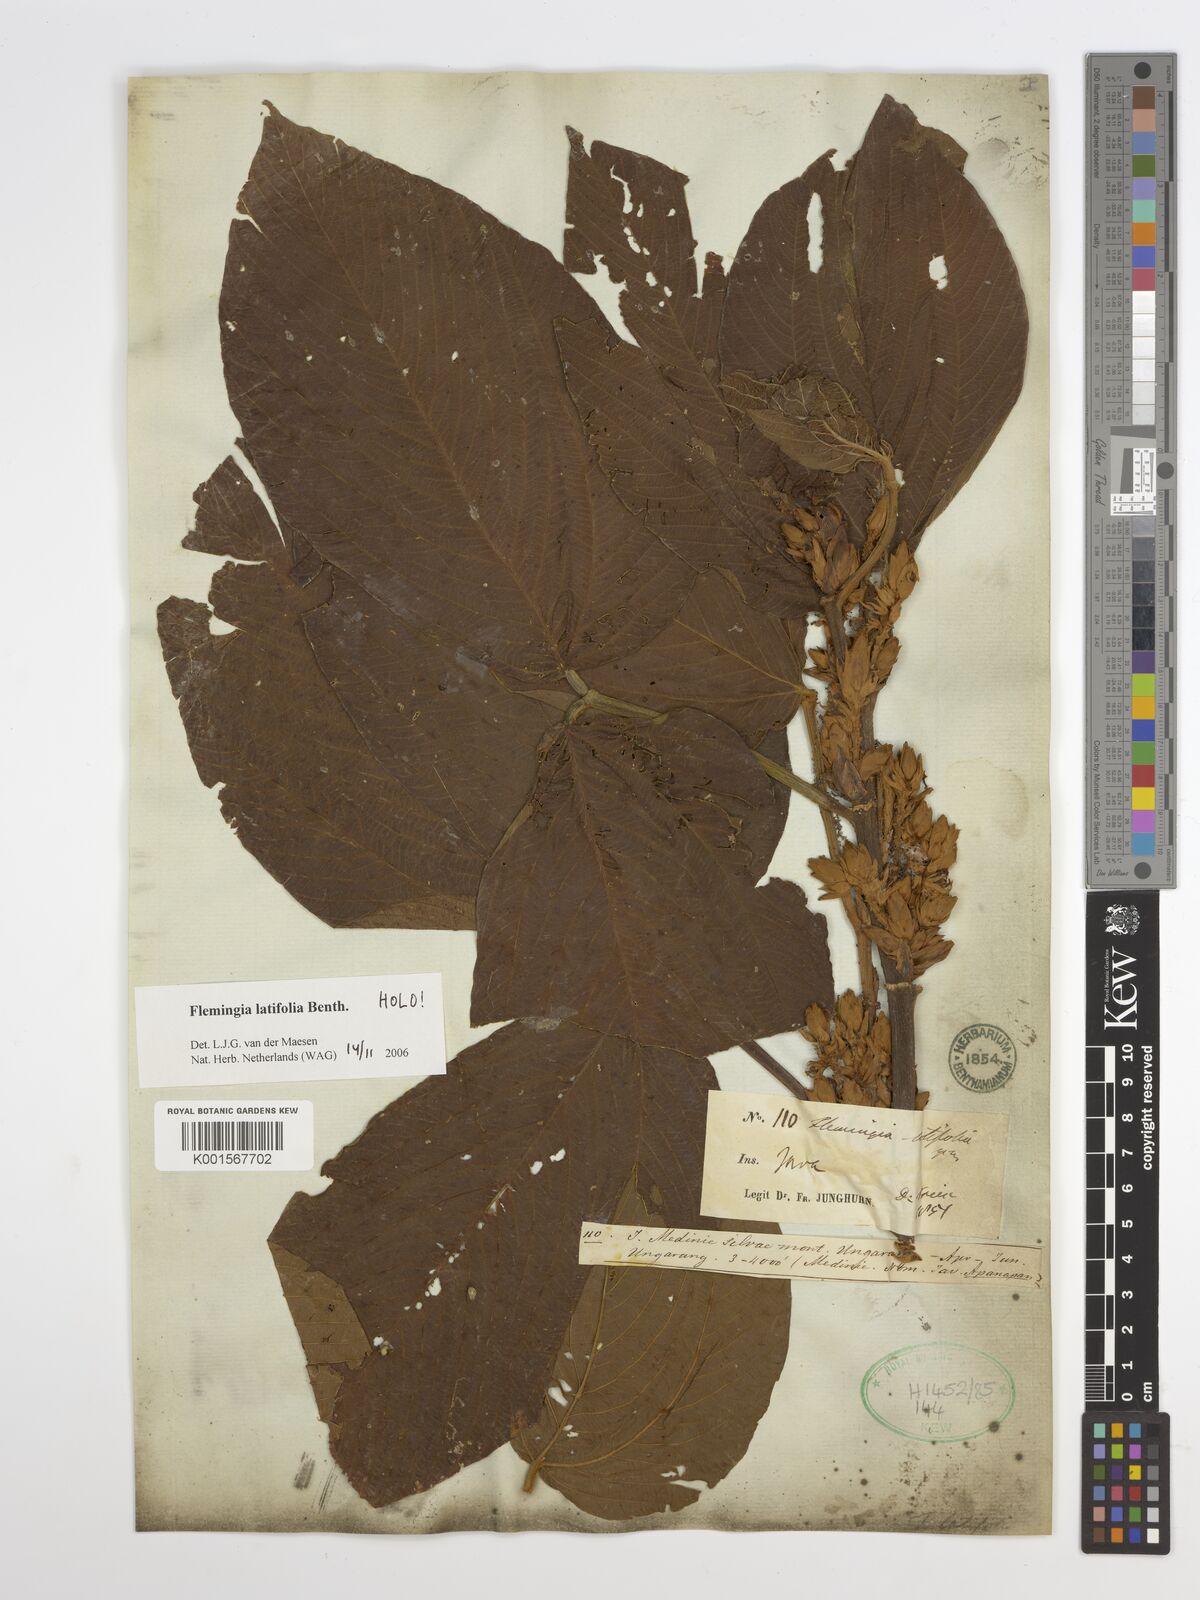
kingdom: Plantae
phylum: Tracheophyta
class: Magnoliopsida
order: Fabales
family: Fabaceae
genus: Flemingia
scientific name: Flemingia latifolia
